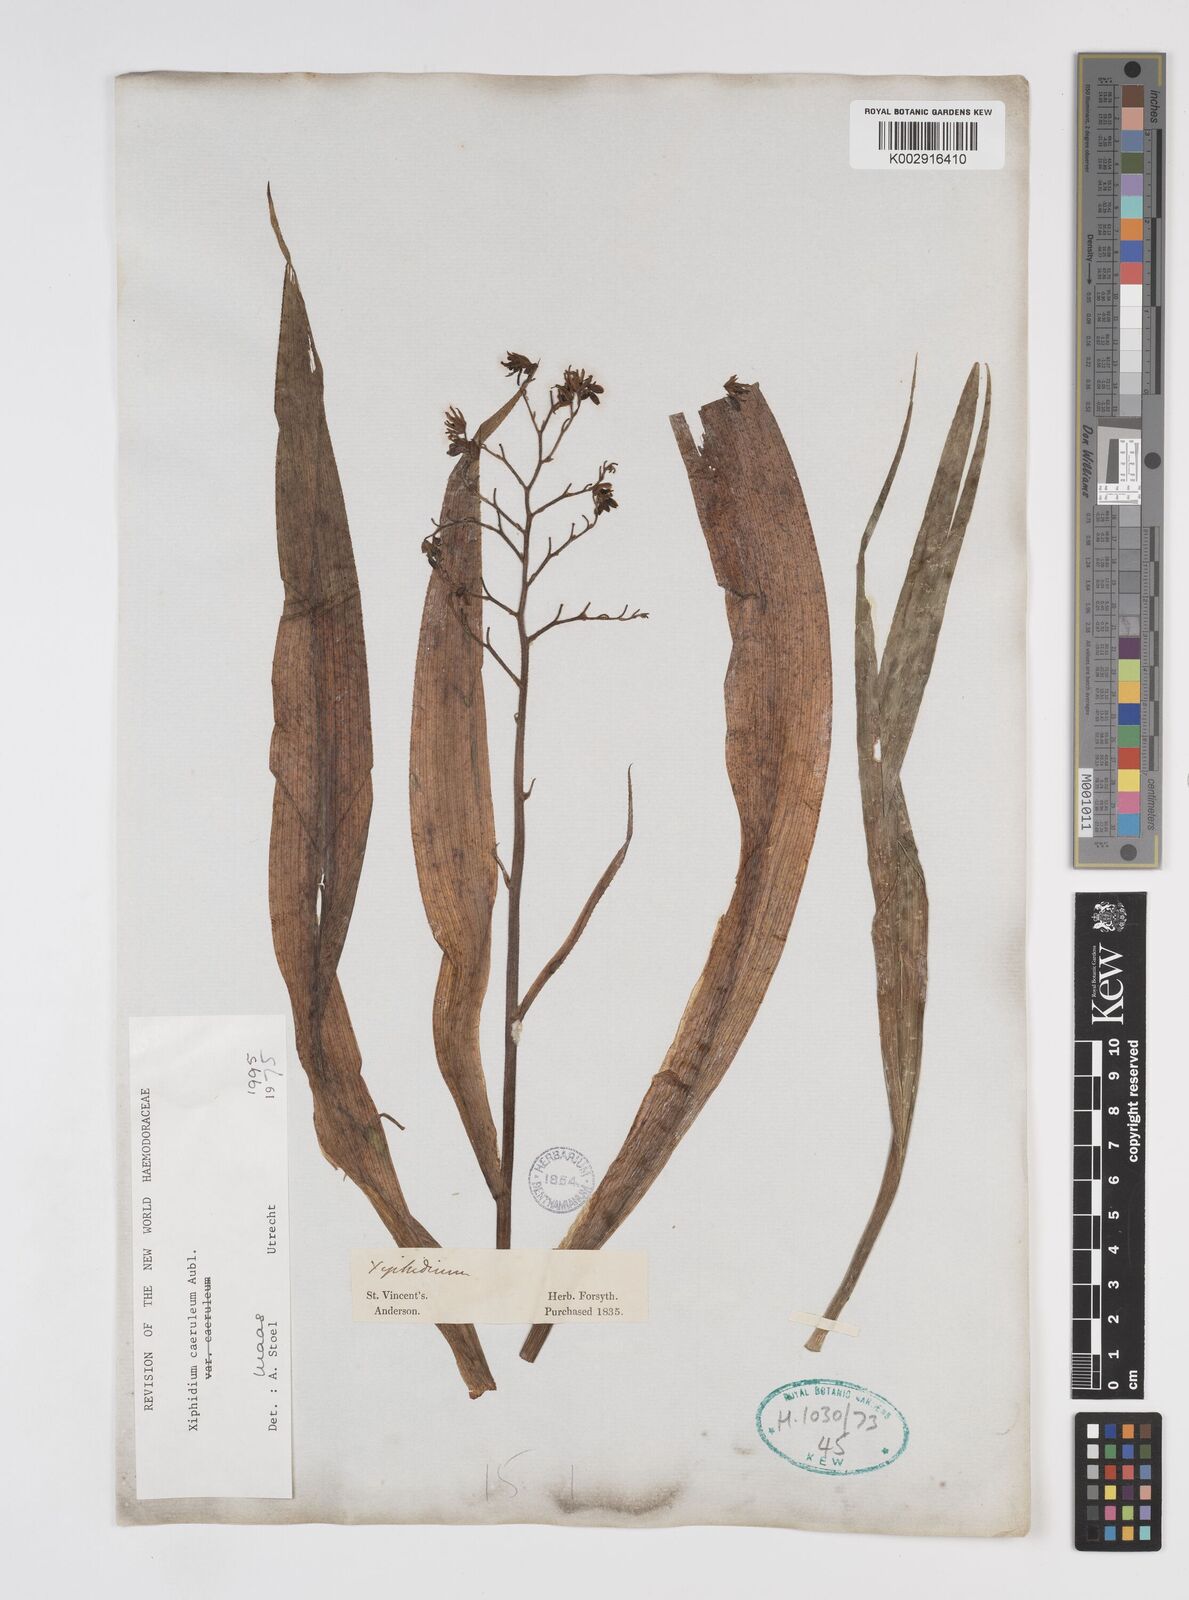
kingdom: Plantae
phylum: Tracheophyta
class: Liliopsida
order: Commelinales
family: Haemodoraceae
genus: Xiphidium
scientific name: Xiphidium caeruleum
